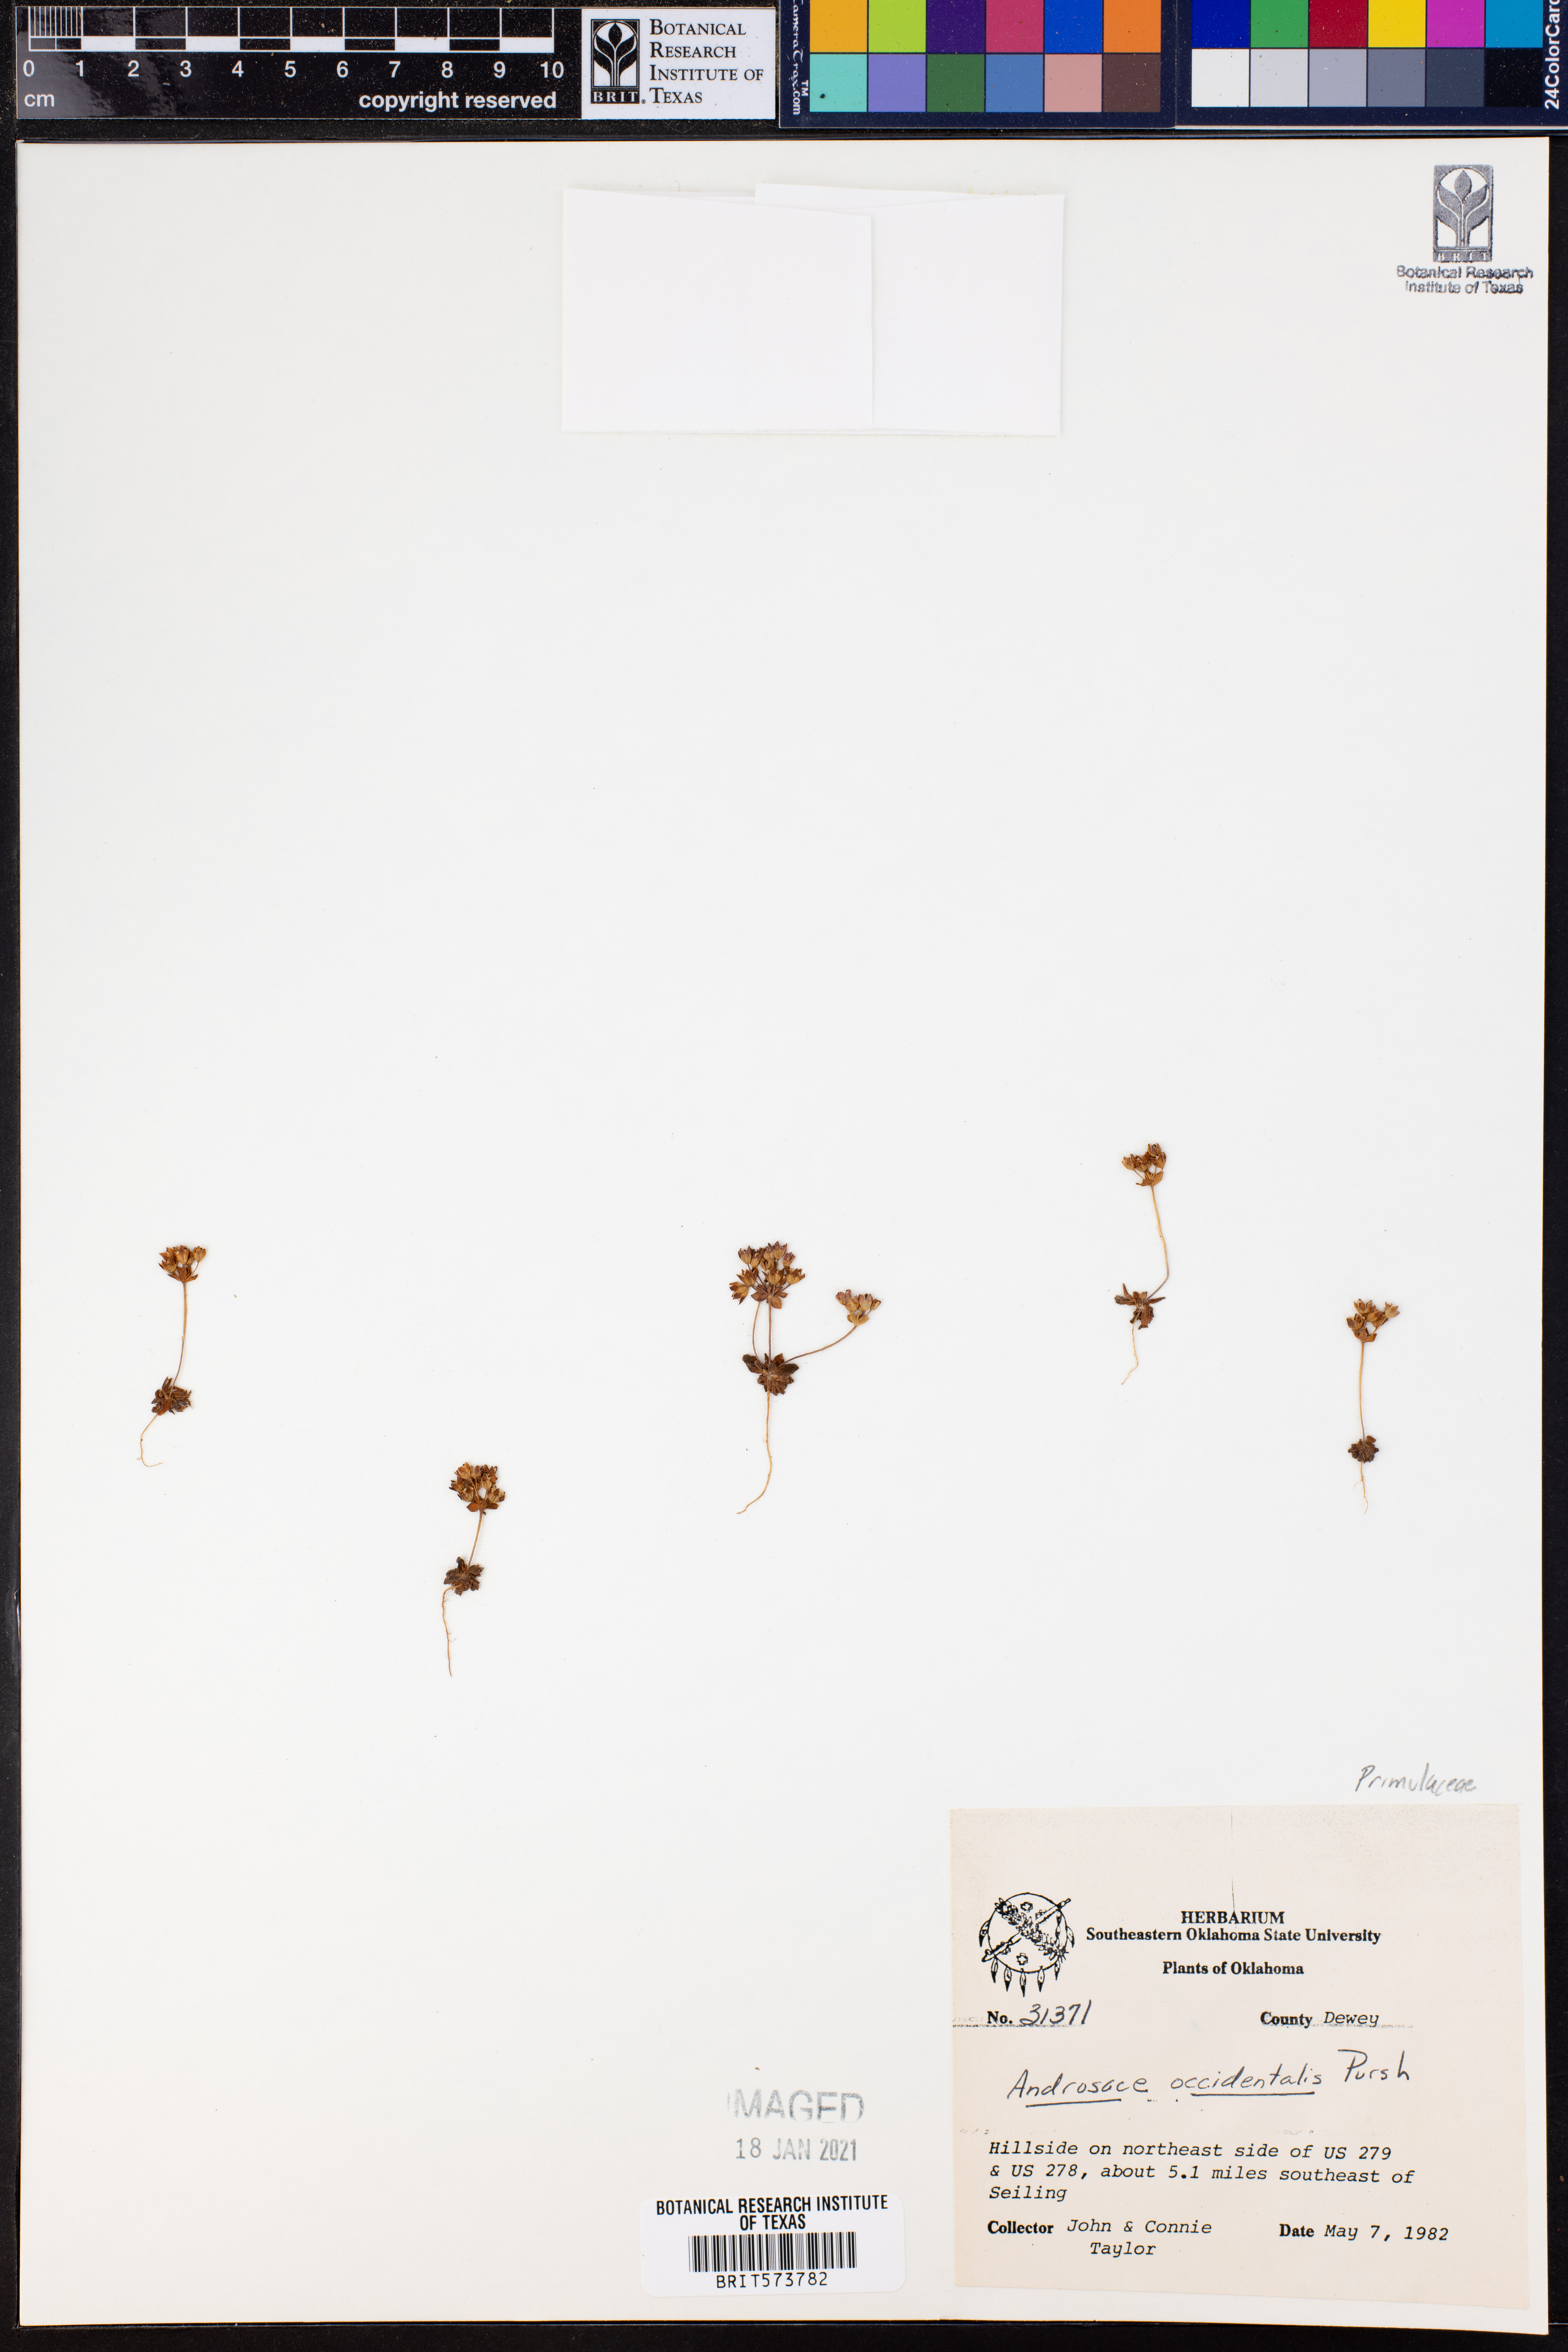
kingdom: Plantae
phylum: Tracheophyta
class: Magnoliopsida
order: Ericales
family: Primulaceae
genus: Androsace
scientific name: Androsace occidentalis
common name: West rock-jasmine
